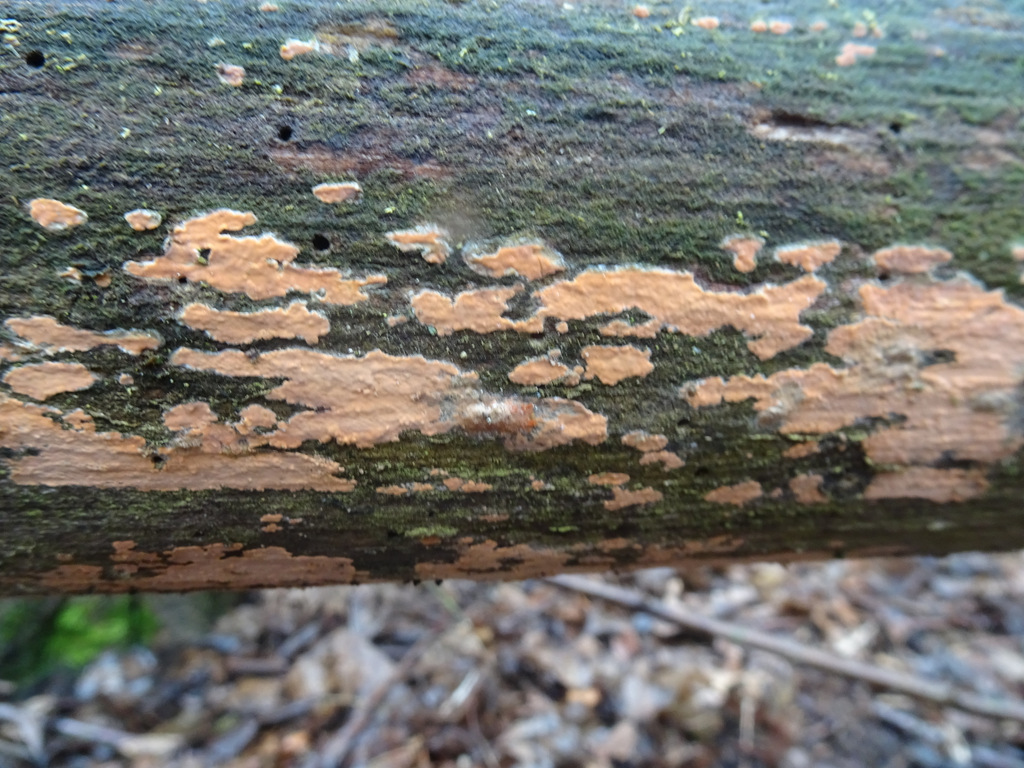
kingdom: Fungi
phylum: Basidiomycota
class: Agaricomycetes
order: Russulales
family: Peniophoraceae
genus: Peniophora
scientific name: Peniophora incarnata
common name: laksefarvet voksskind
